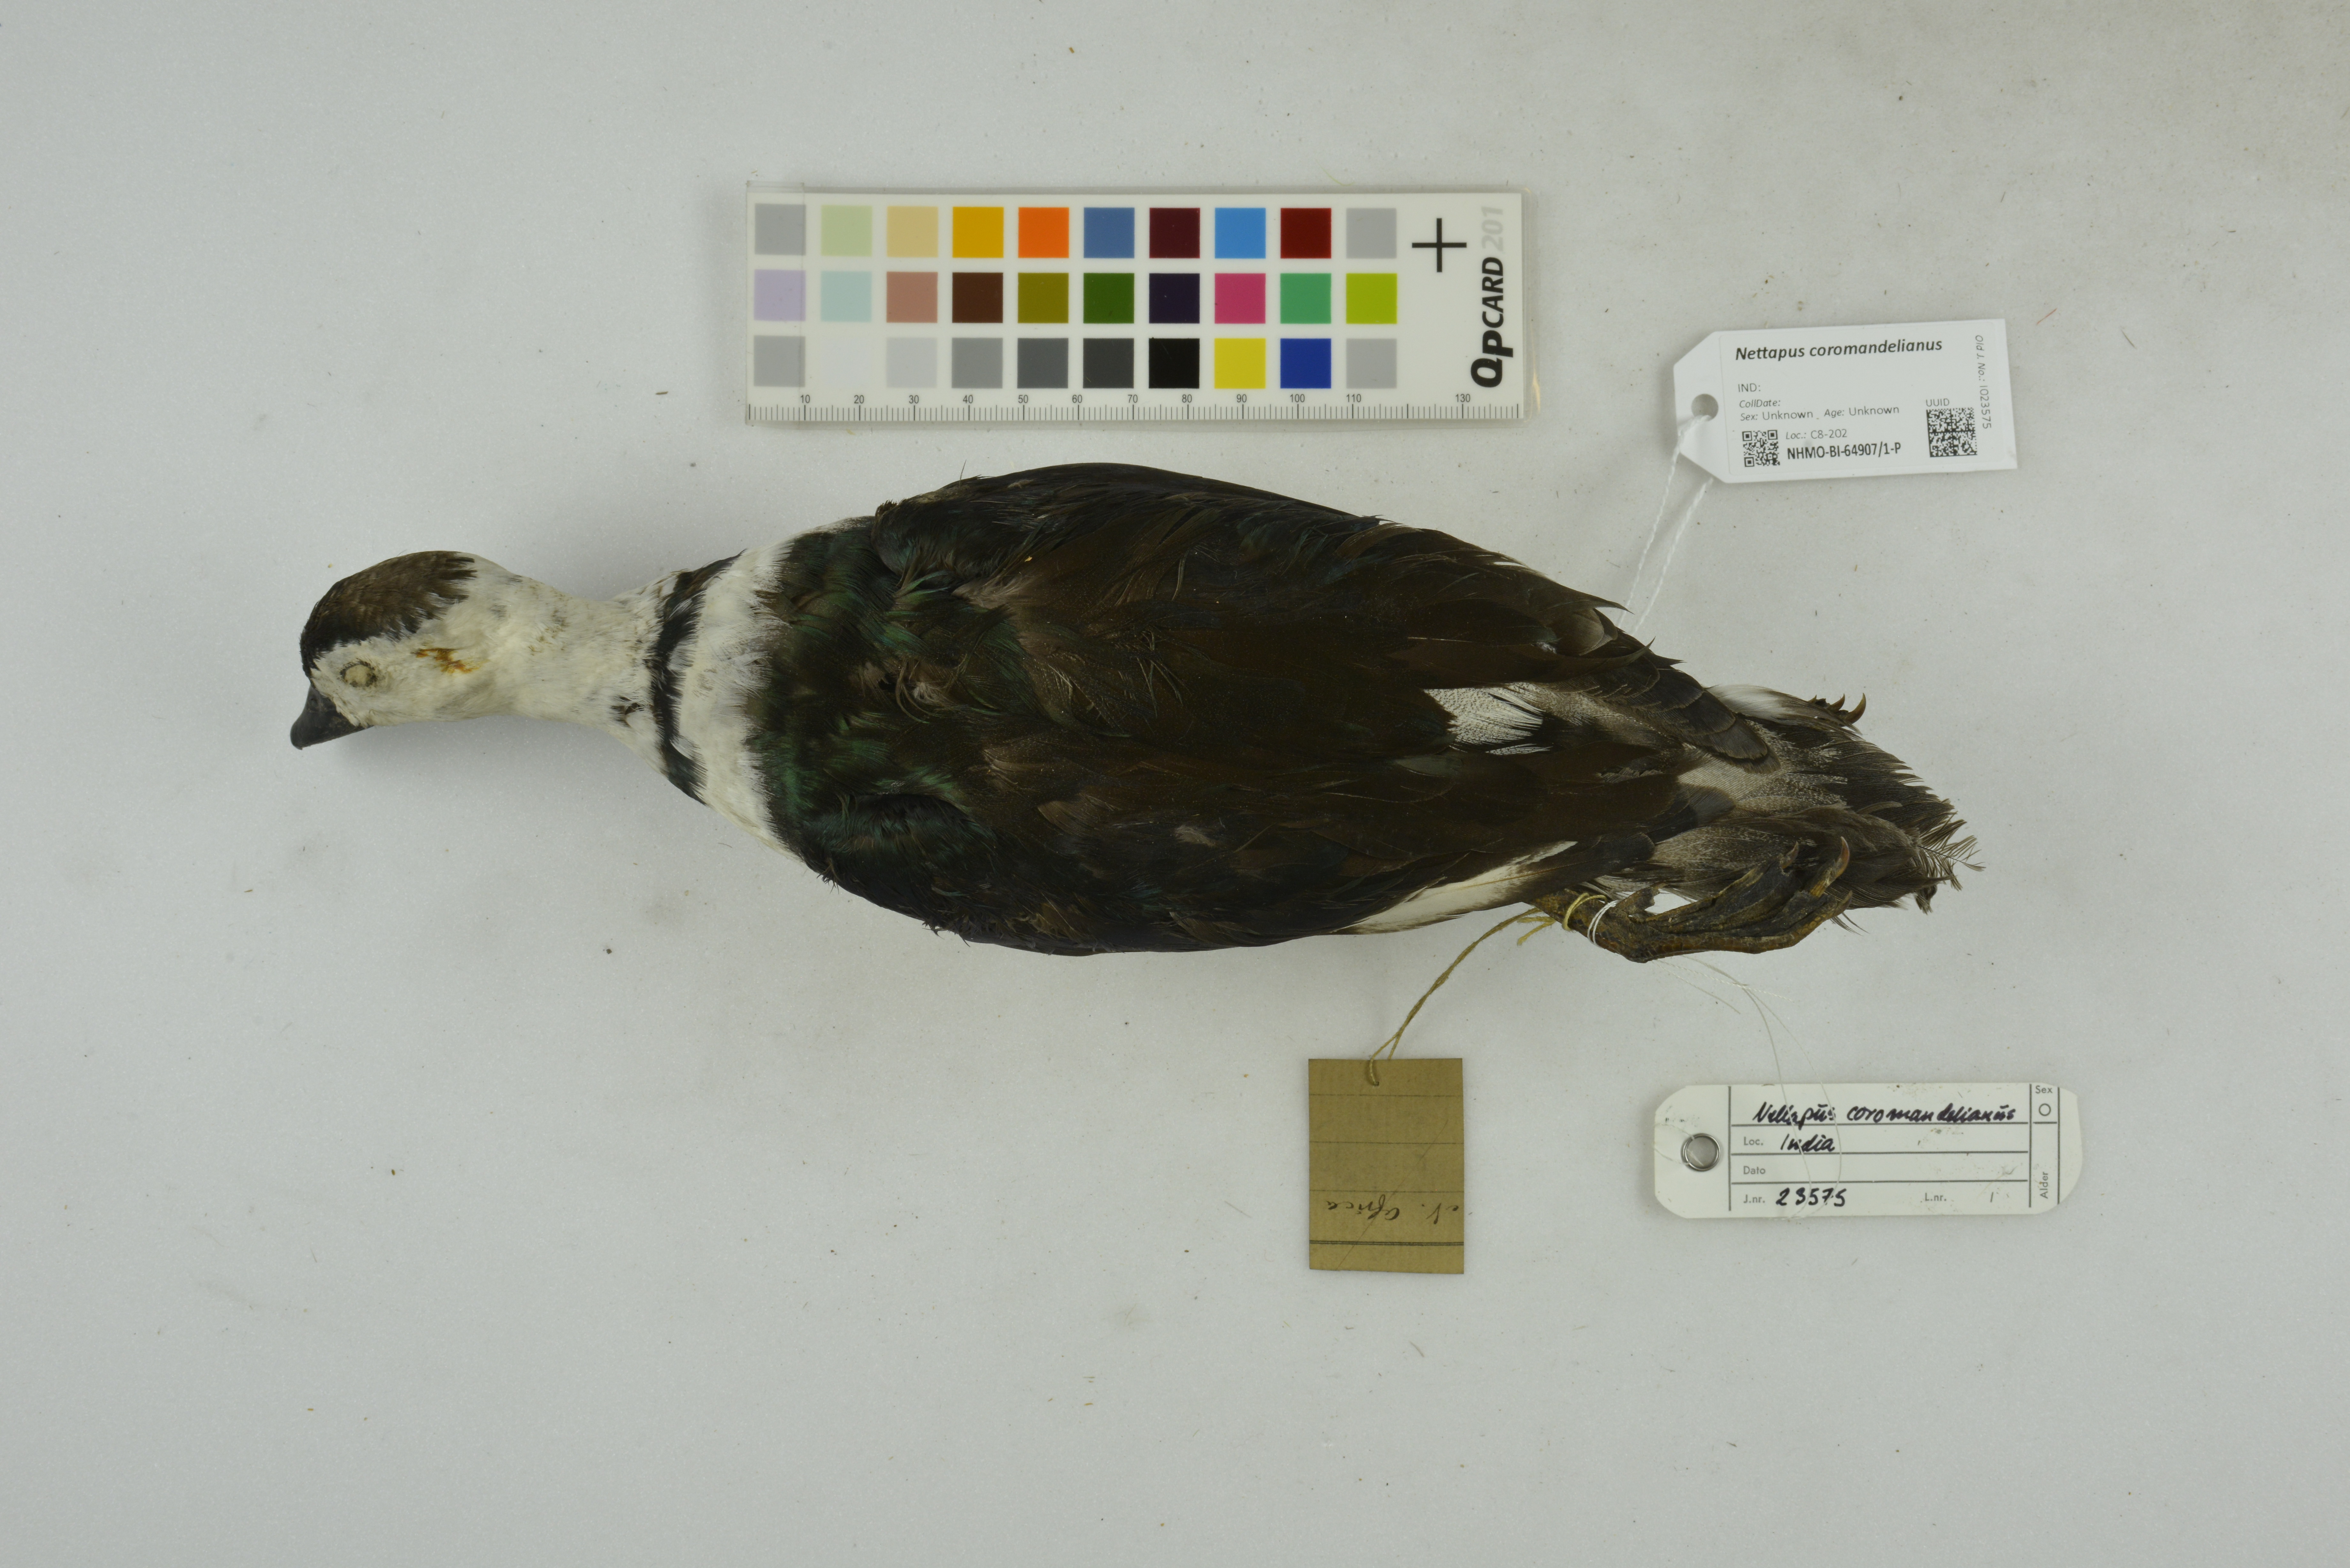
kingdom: Animalia
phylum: Chordata
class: Aves
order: Anseriformes
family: Anatidae
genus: Nettapus
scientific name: Nettapus coromandelianus
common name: Cotton pygmy-goose
